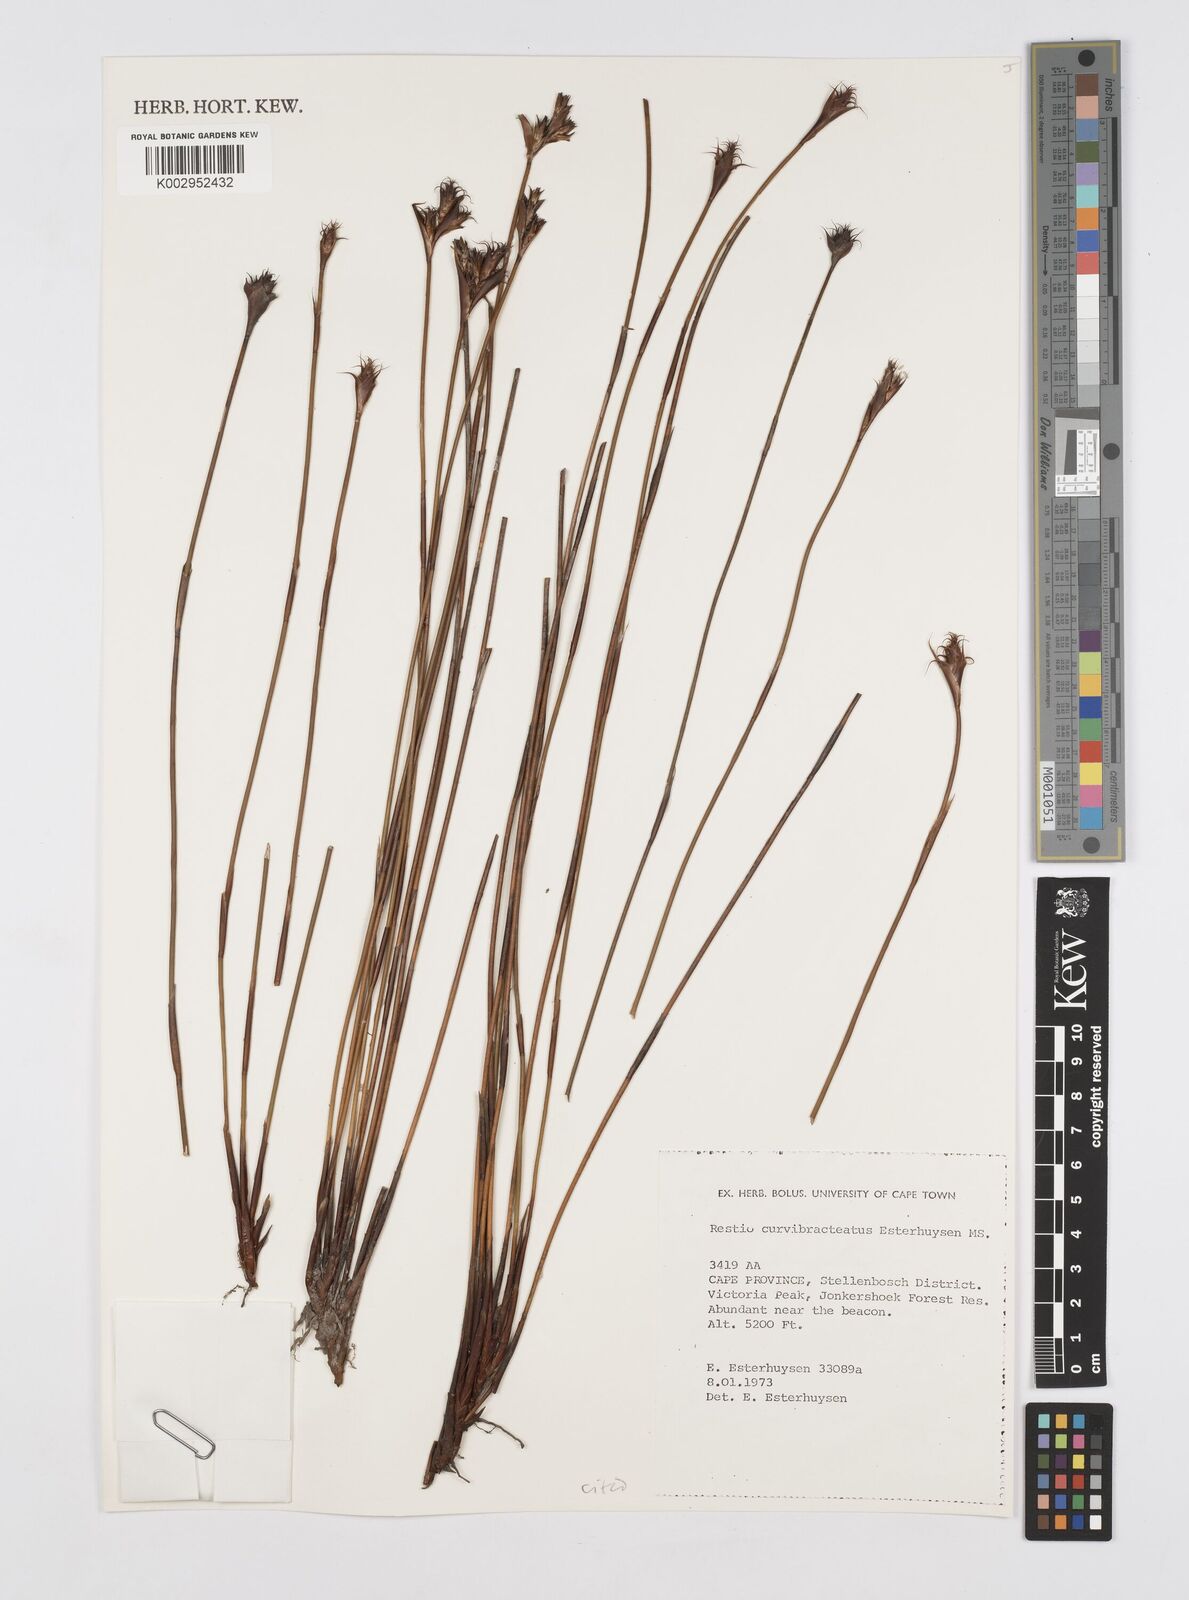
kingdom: Plantae
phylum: Tracheophyta
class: Liliopsida
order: Poales
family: Restionaceae
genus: Restio
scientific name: Restio curvibracteatus
